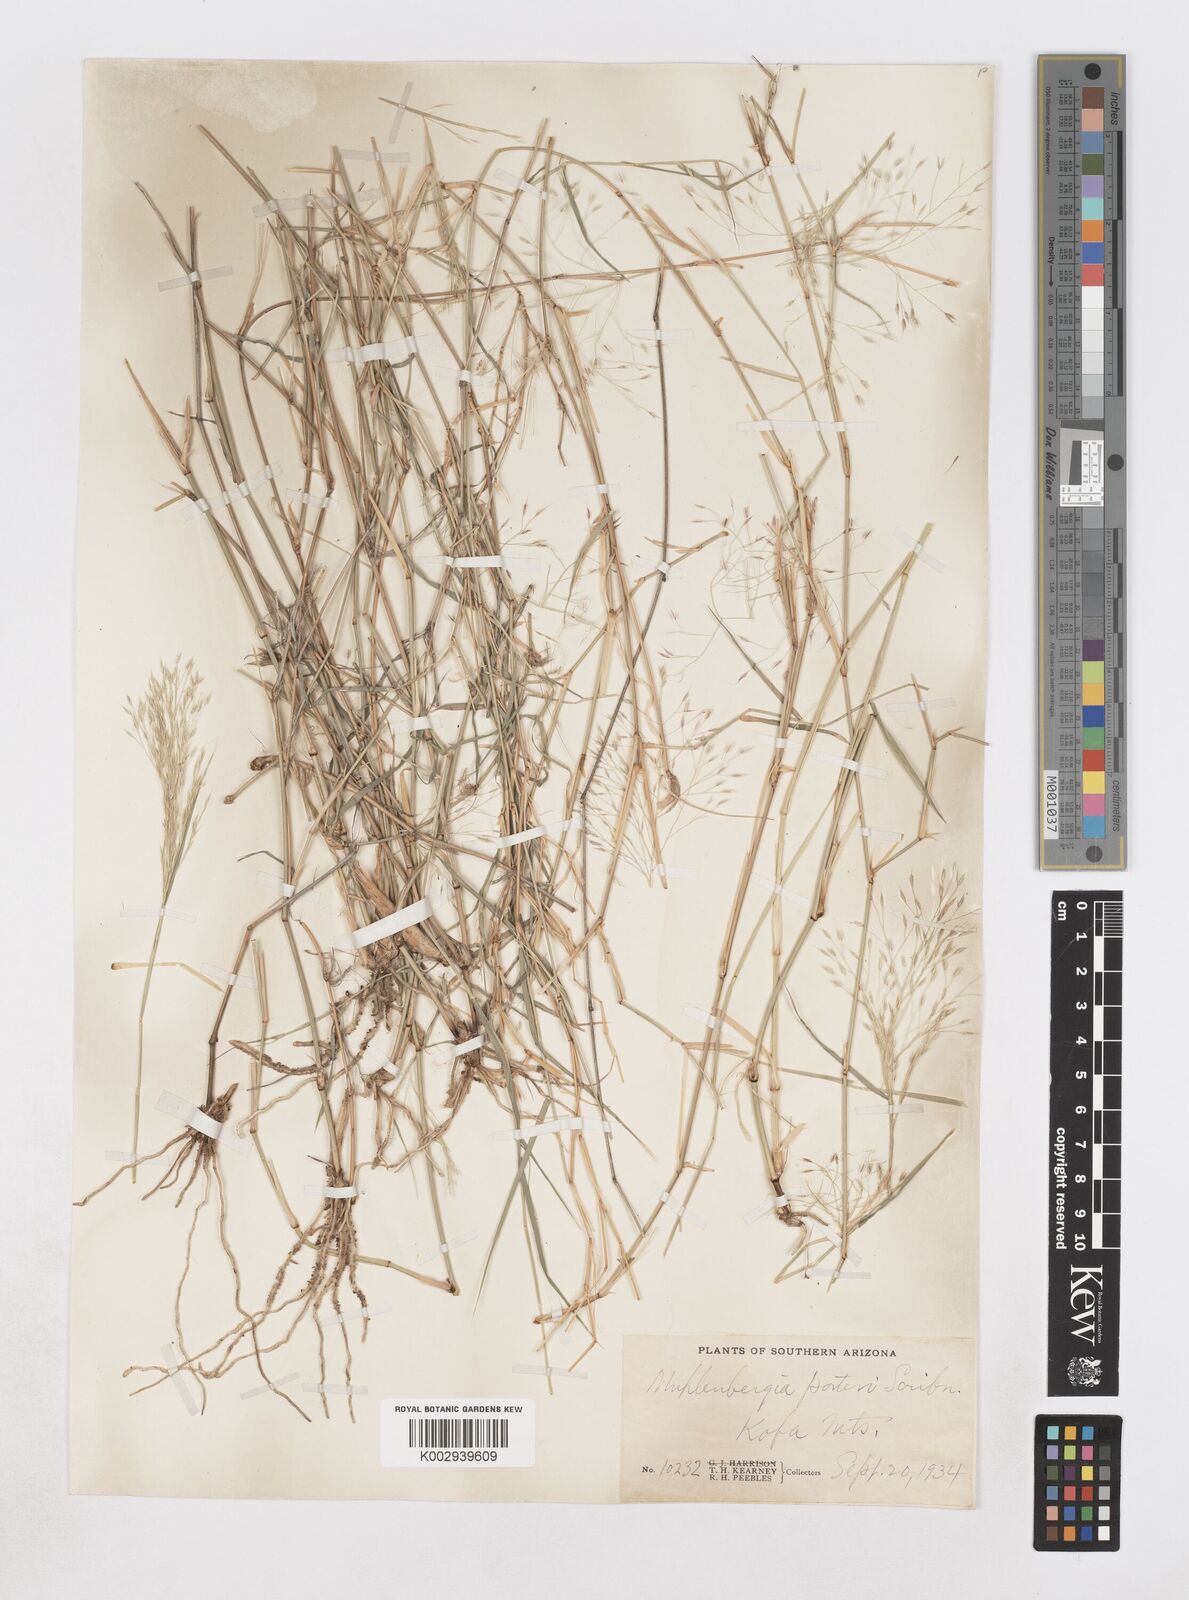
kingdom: Plantae
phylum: Tracheophyta
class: Liliopsida
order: Poales
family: Poaceae
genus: Muhlenbergia
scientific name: Muhlenbergia porteri
